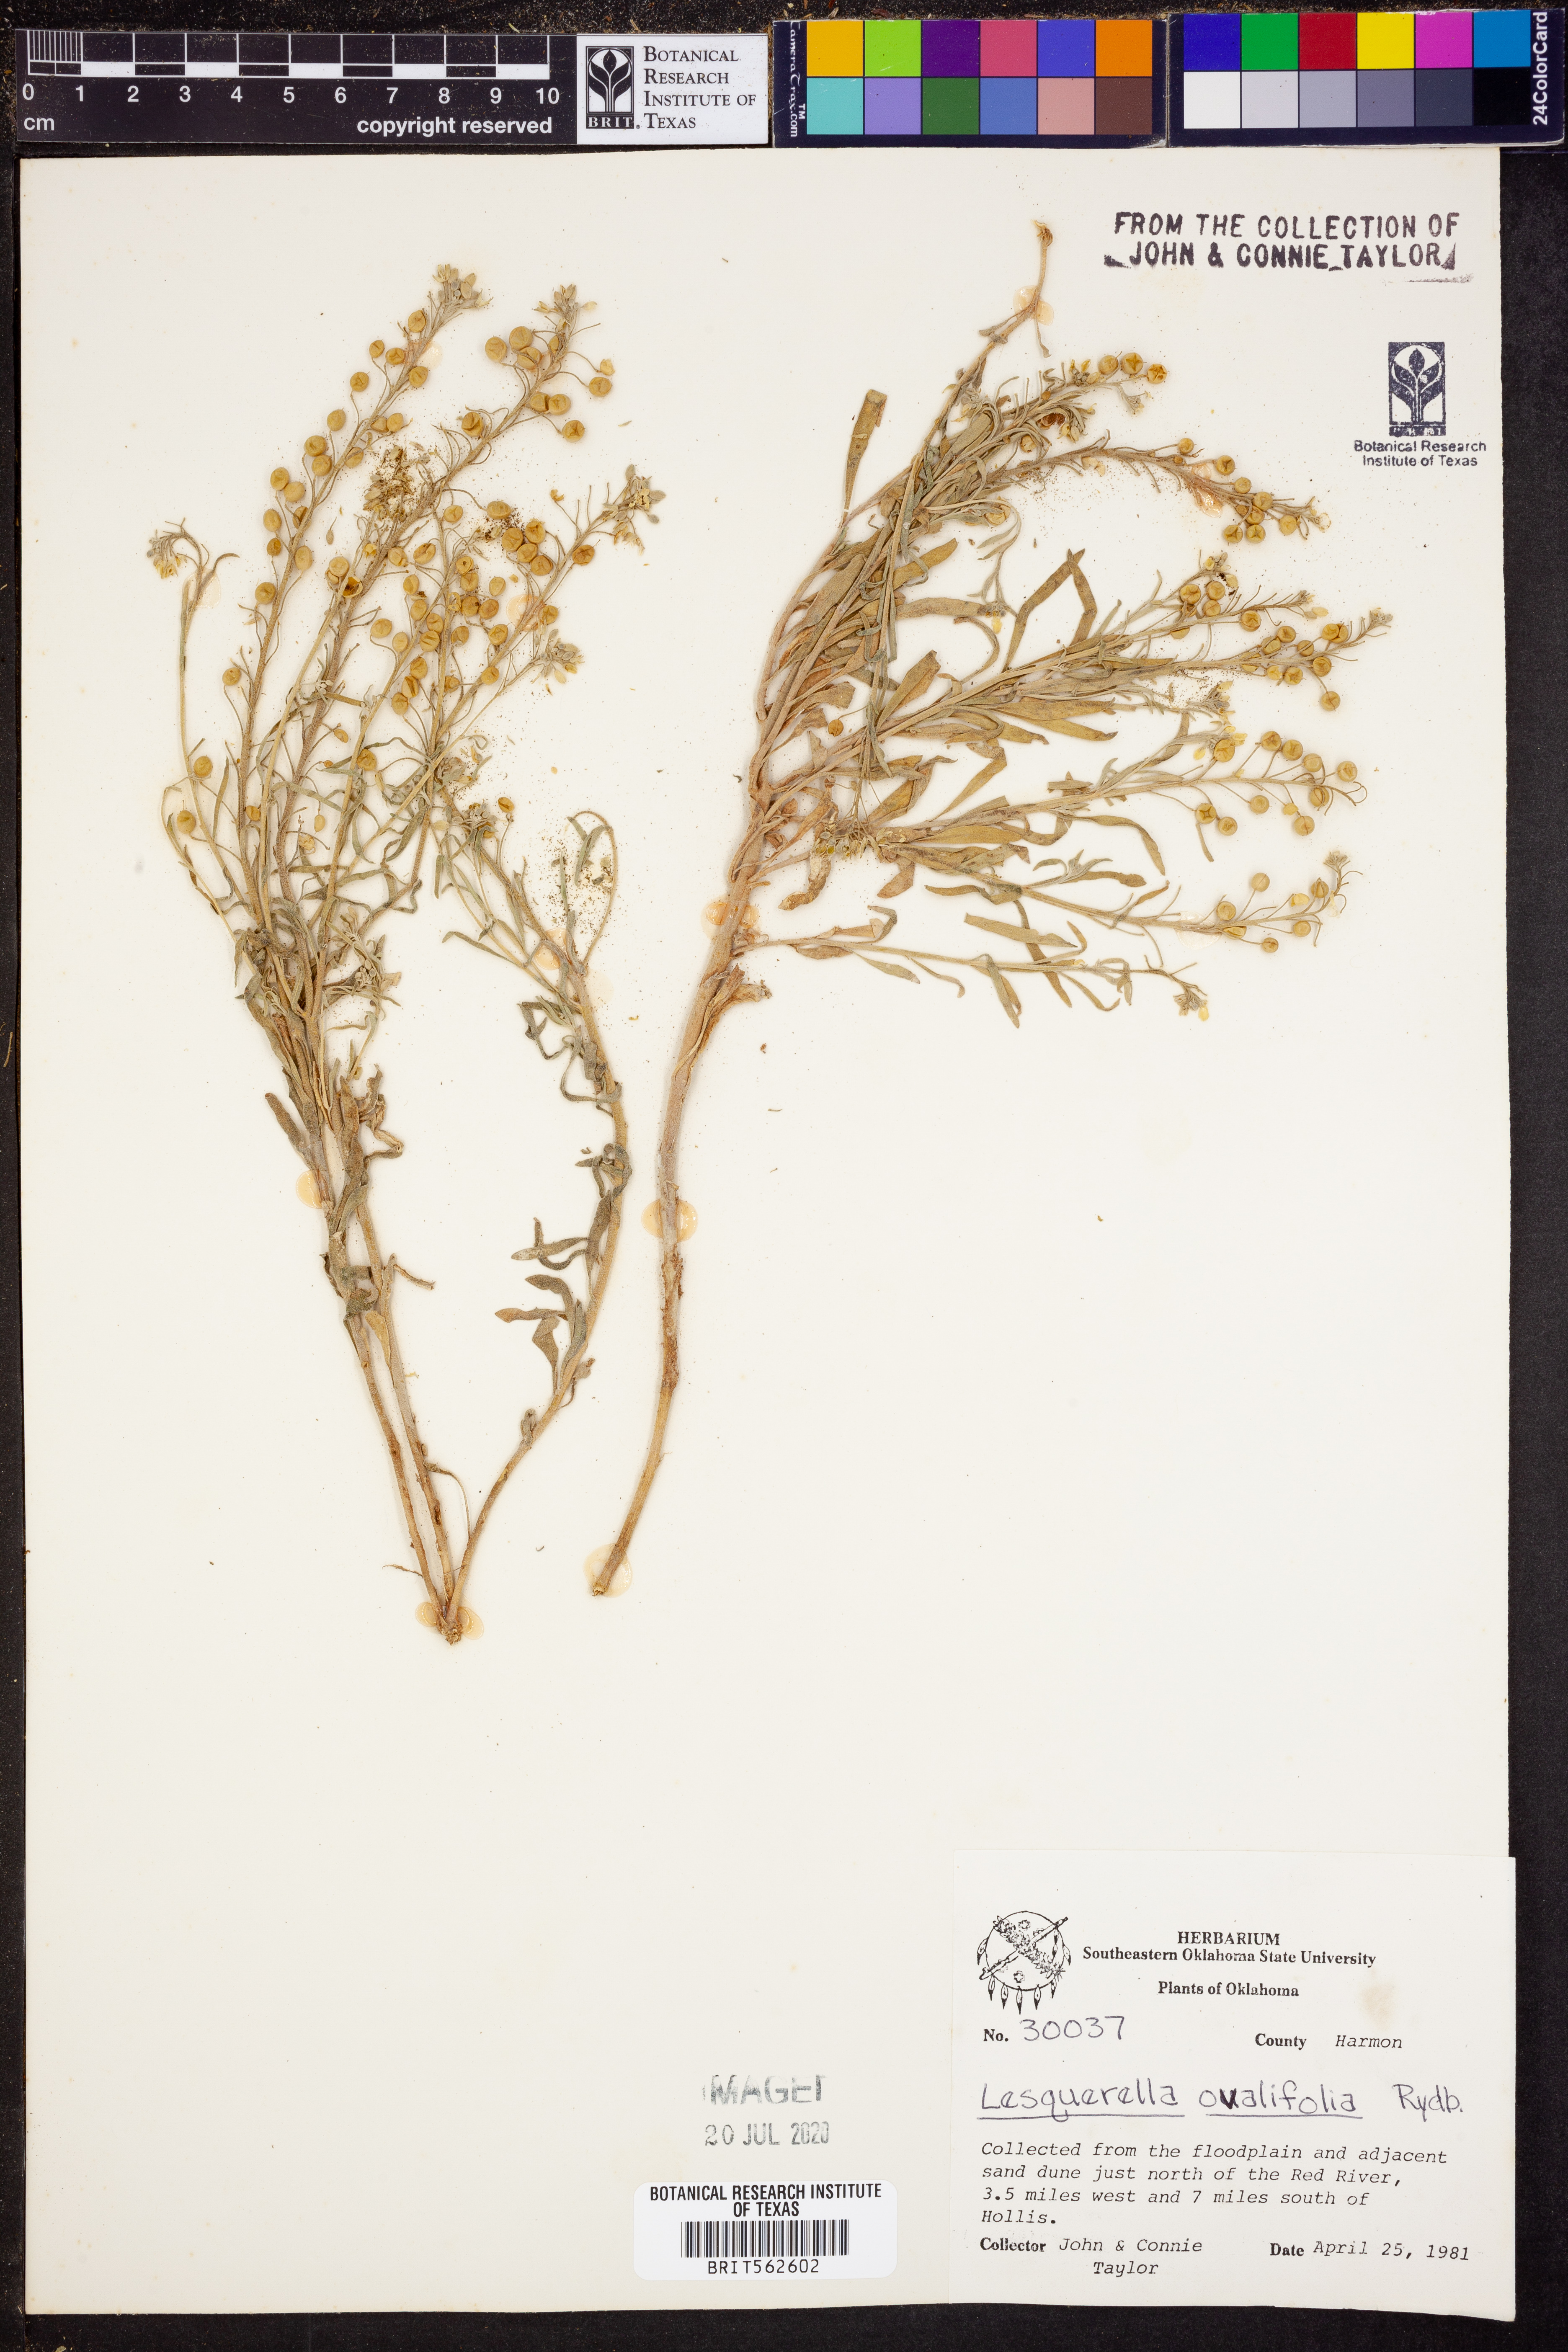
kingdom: Plantae
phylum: Tracheophyta
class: Magnoliopsida
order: Brassicales
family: Brassicaceae
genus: Physaria
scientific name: Physaria ovalifolia
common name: Round-leaf bladderpod
